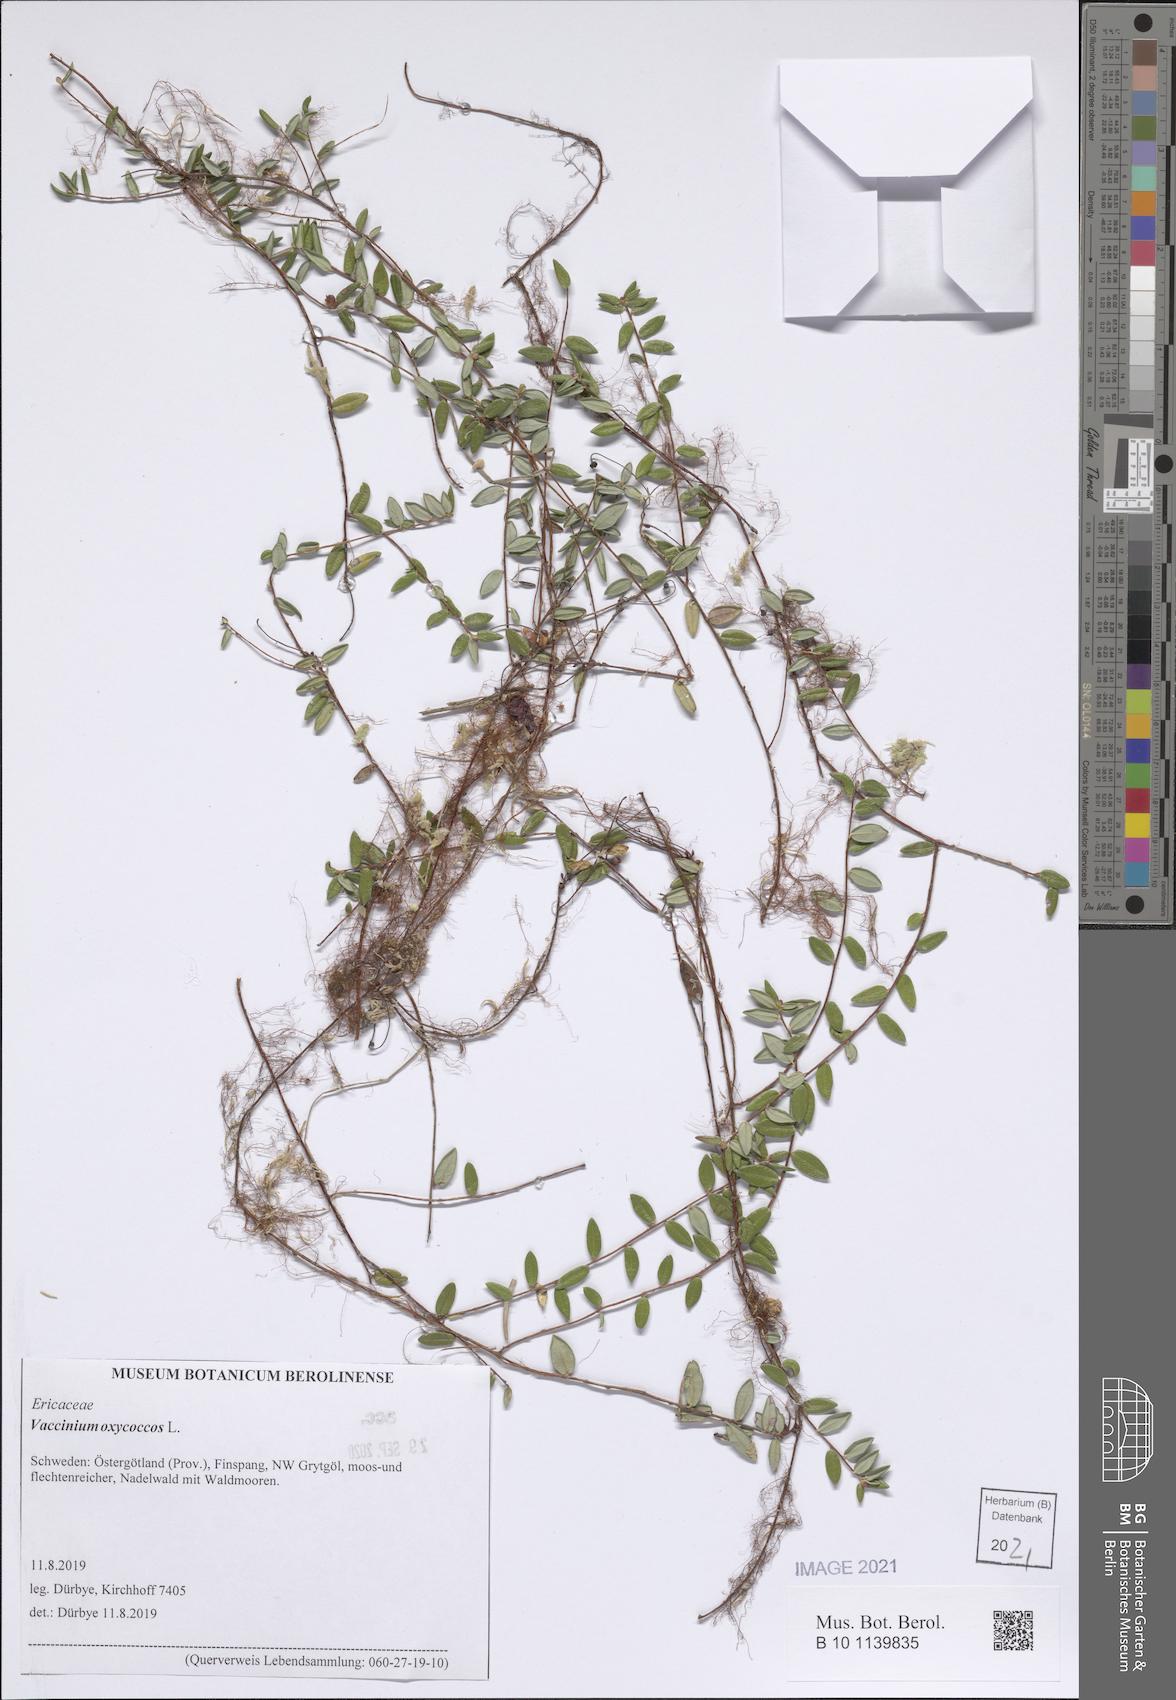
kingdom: Plantae
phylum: Tracheophyta
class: Magnoliopsida
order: Ericales
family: Ericaceae
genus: Vaccinium
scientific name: Vaccinium oxycoccos
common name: Cranberry
